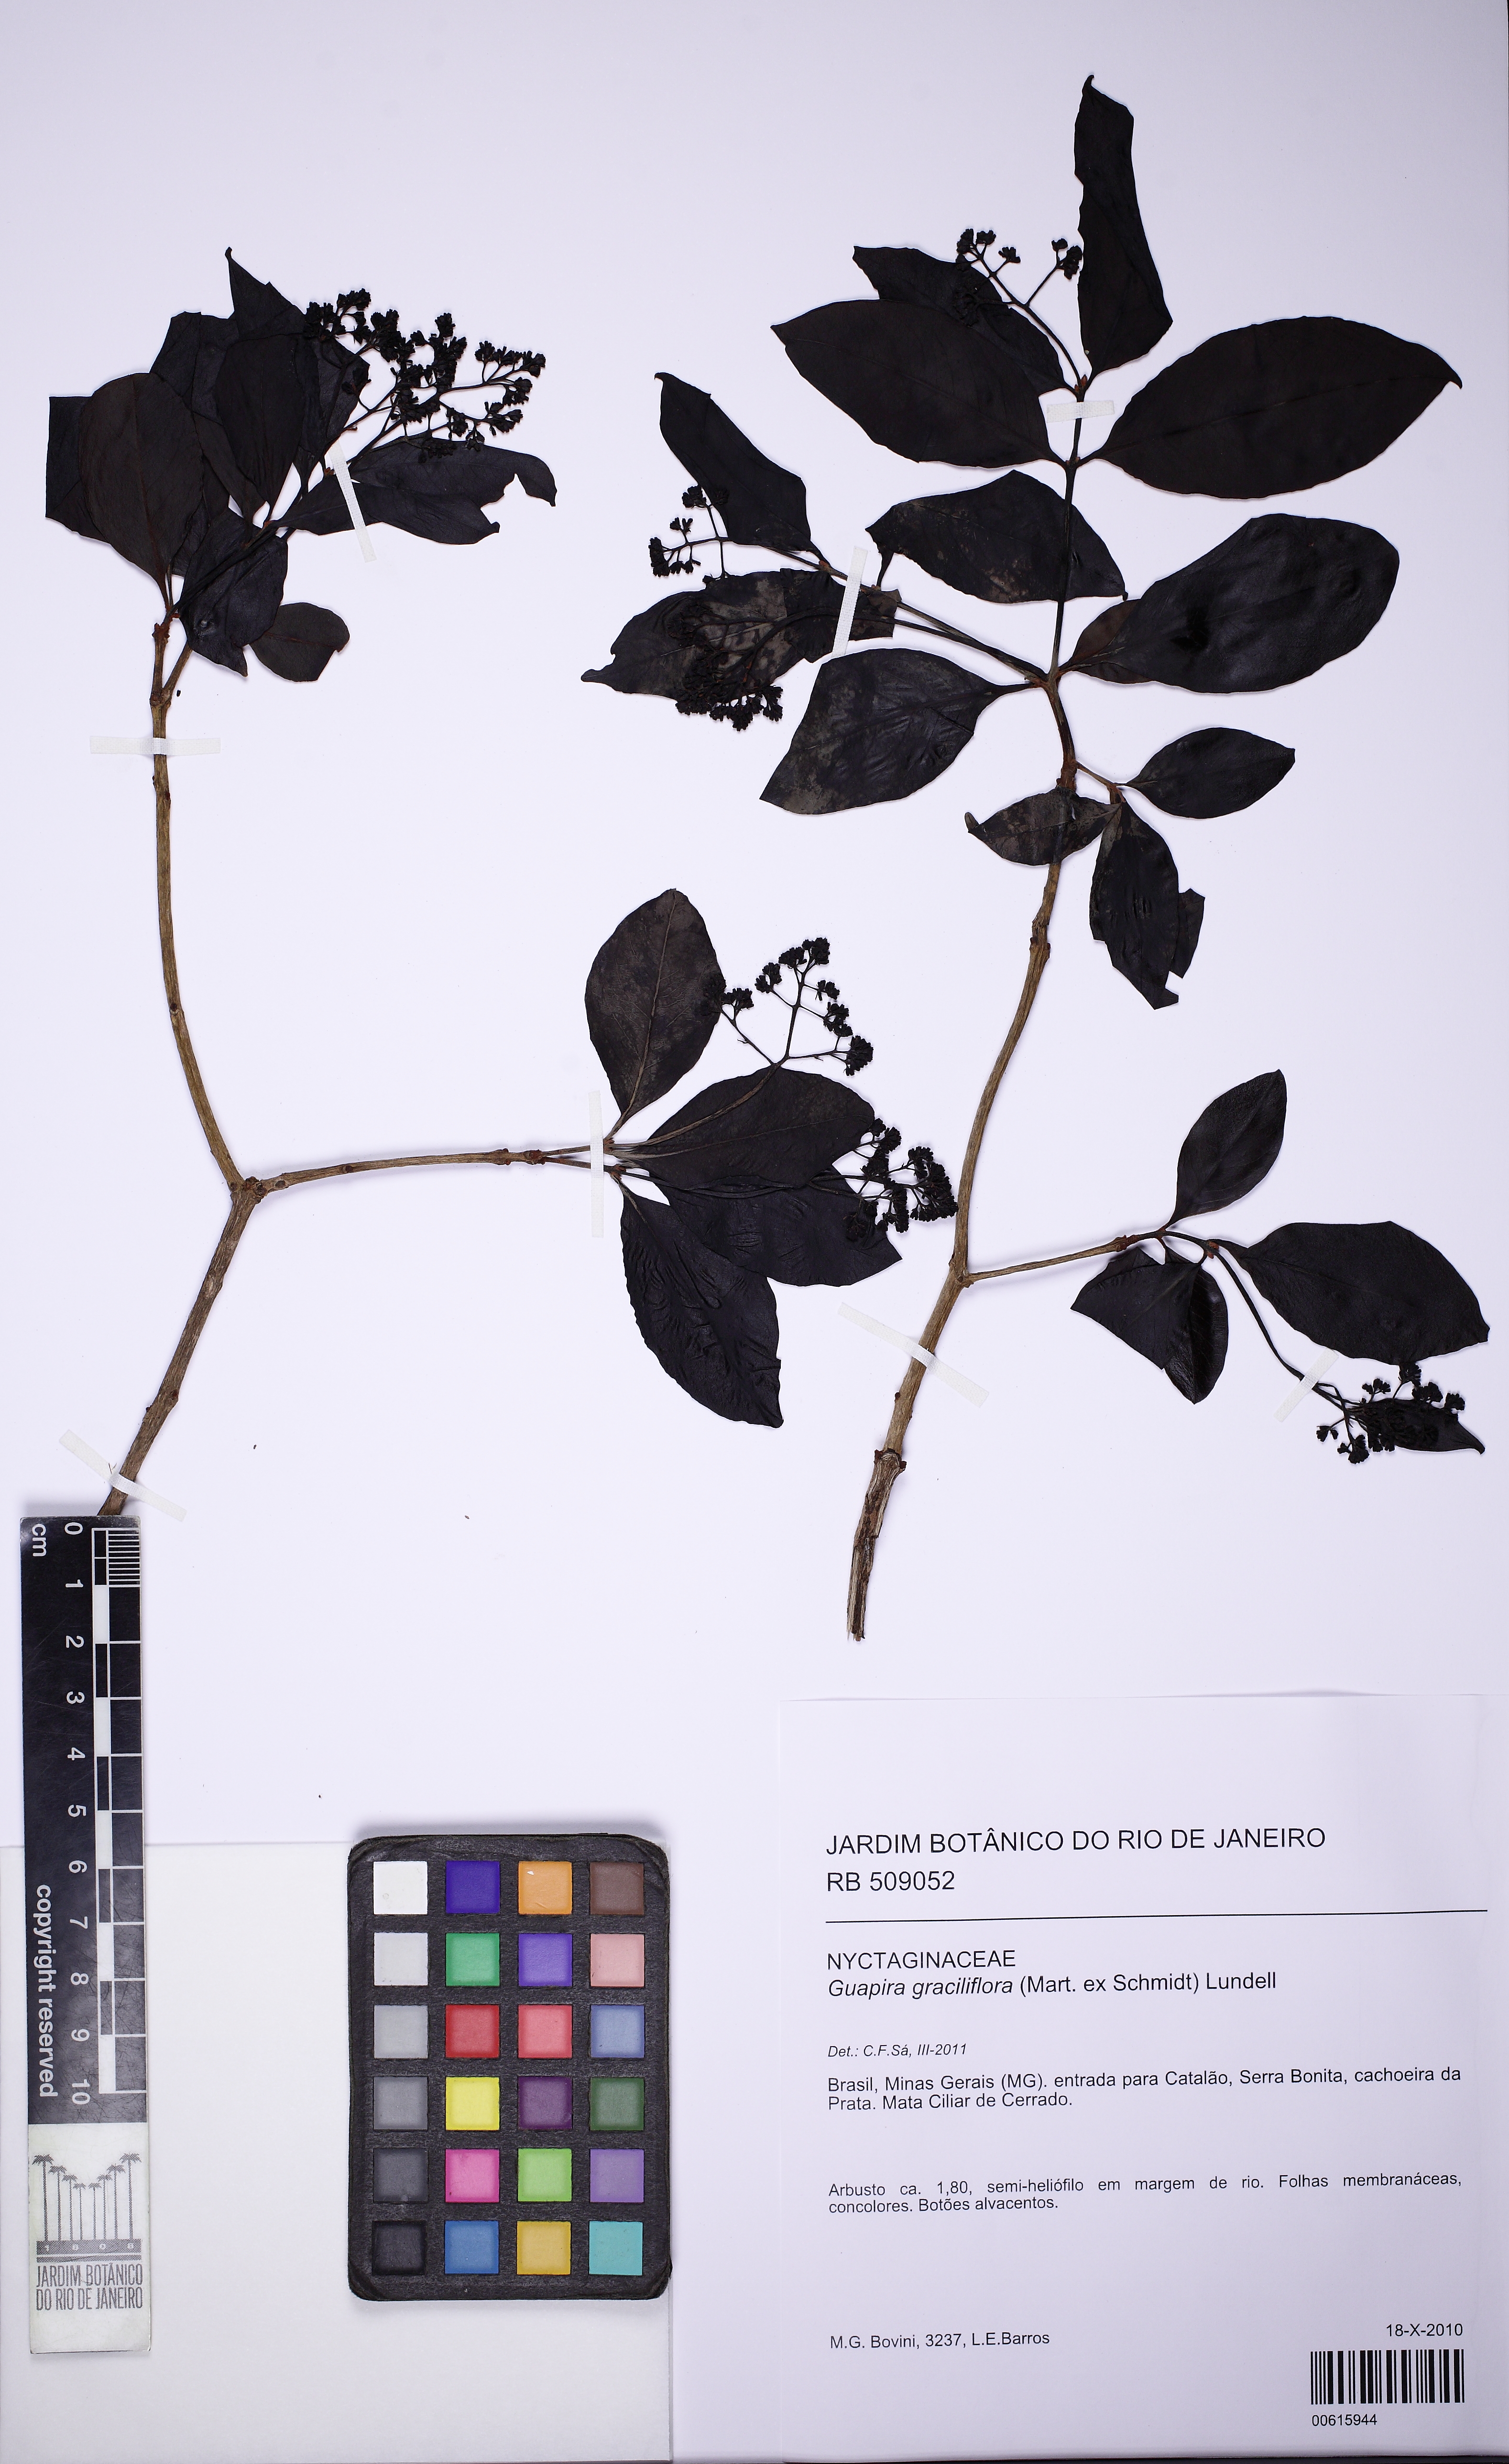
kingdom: Plantae
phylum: Tracheophyta
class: Magnoliopsida
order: Caryophyllales
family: Nyctaginaceae
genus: Guapira
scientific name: Guapira graciliflora
